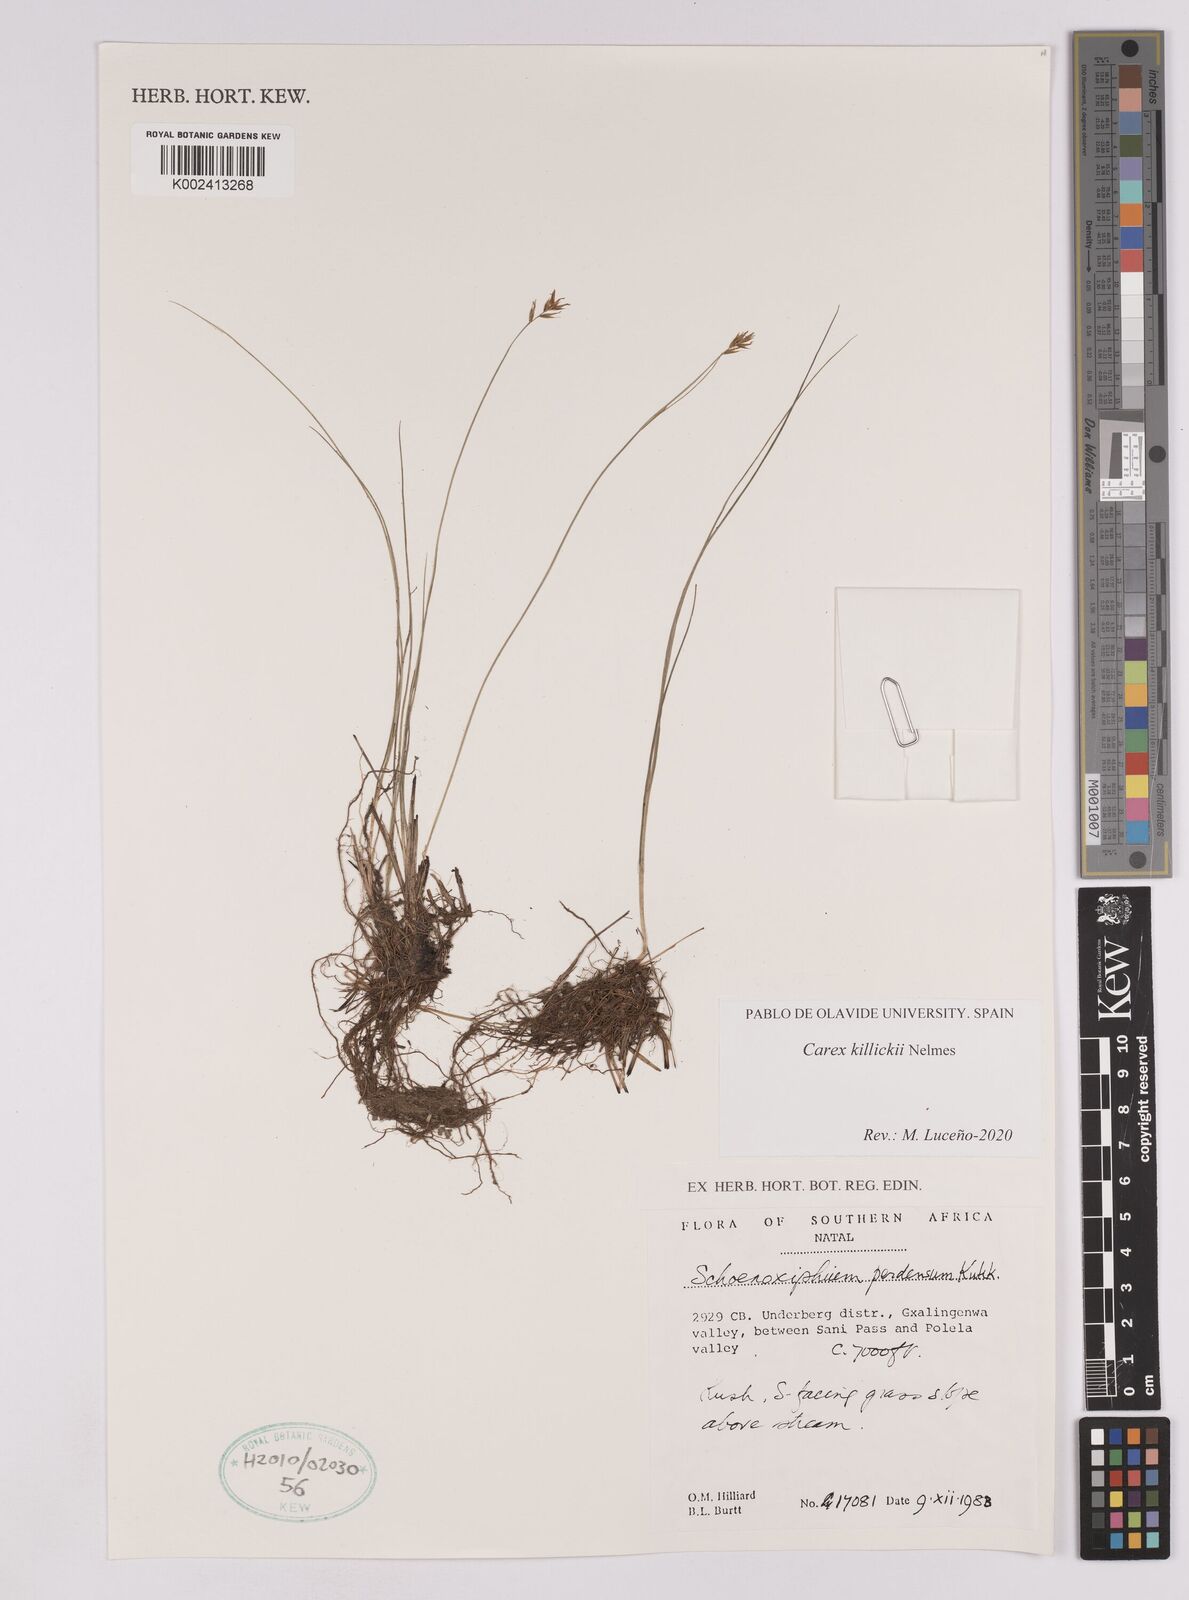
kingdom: Plantae
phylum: Tracheophyta
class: Liliopsida
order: Poales
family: Cyperaceae
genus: Carex
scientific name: Carex
